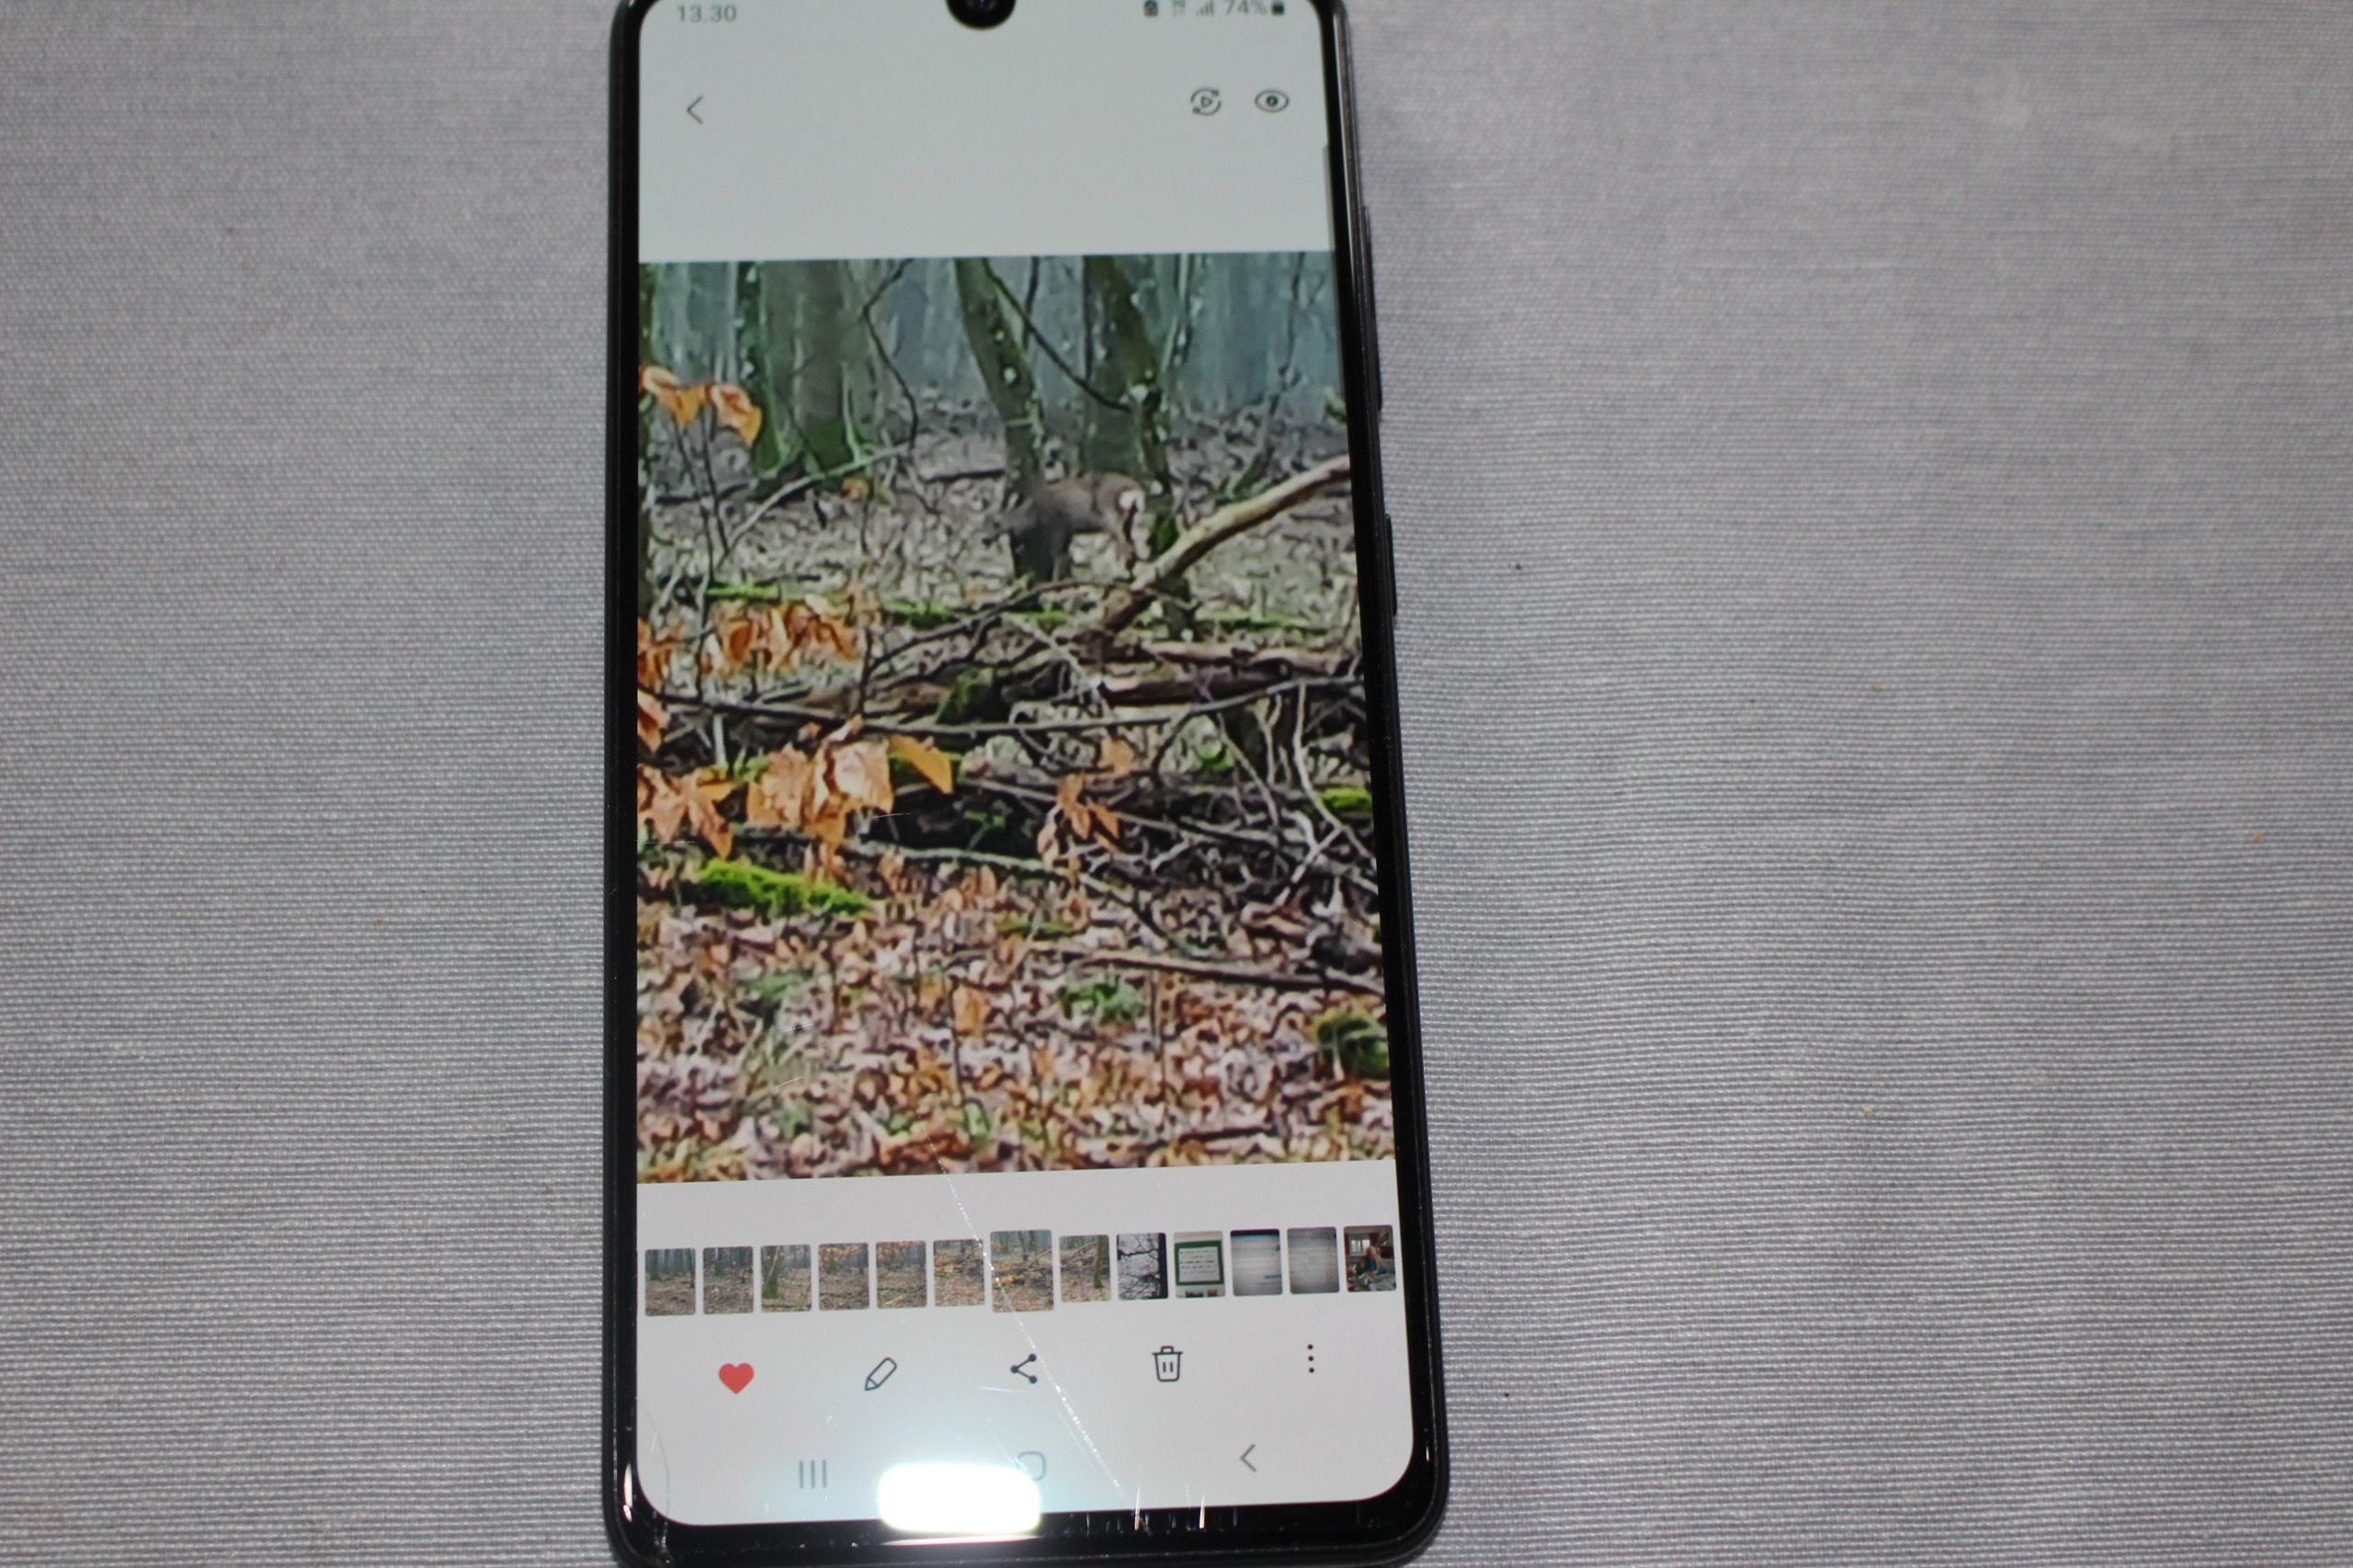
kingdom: Animalia
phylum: Chordata
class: Mammalia
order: Artiodactyla
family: Cervidae
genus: Capreolus
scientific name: Capreolus capreolus
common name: Rådyr
